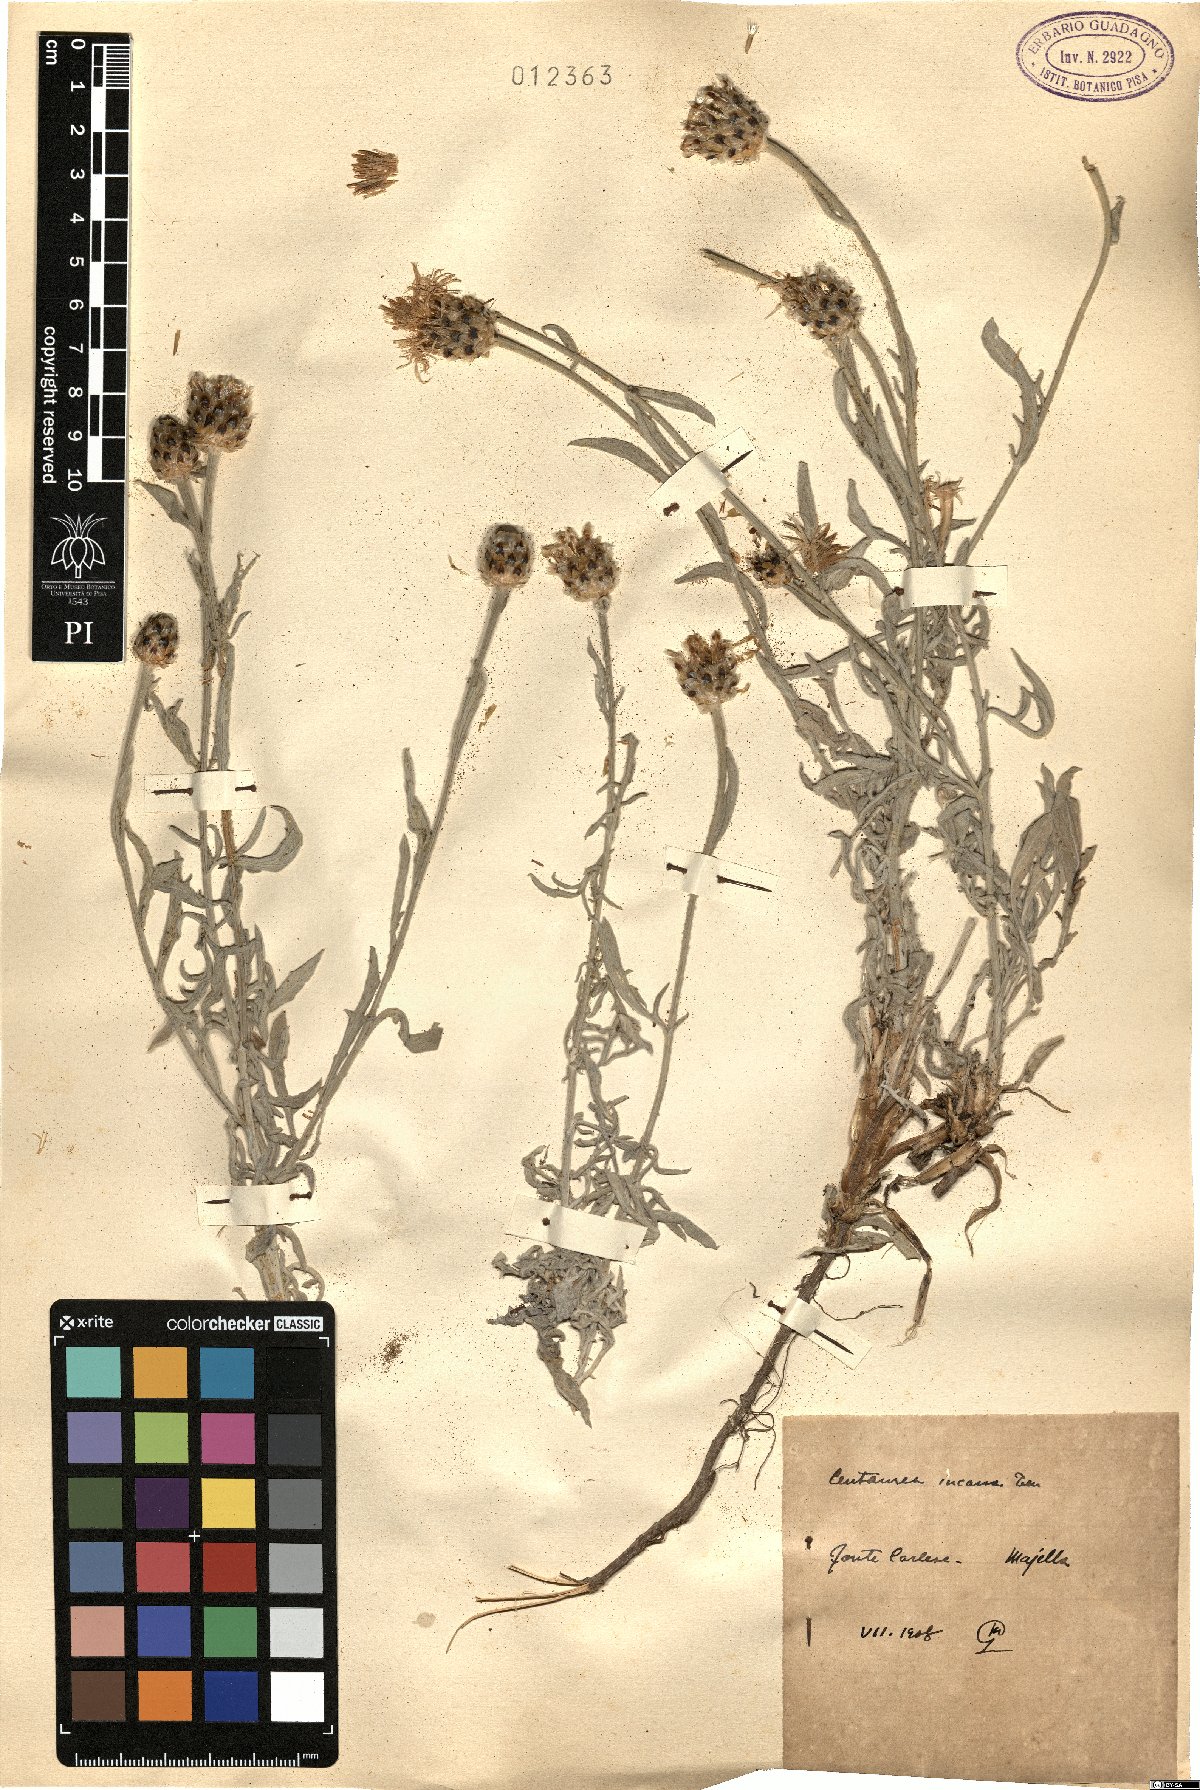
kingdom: Plantae
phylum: Tracheophyta
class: Magnoliopsida
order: Asterales
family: Asteraceae
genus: Centaurea
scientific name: Centaurea tenoreana
